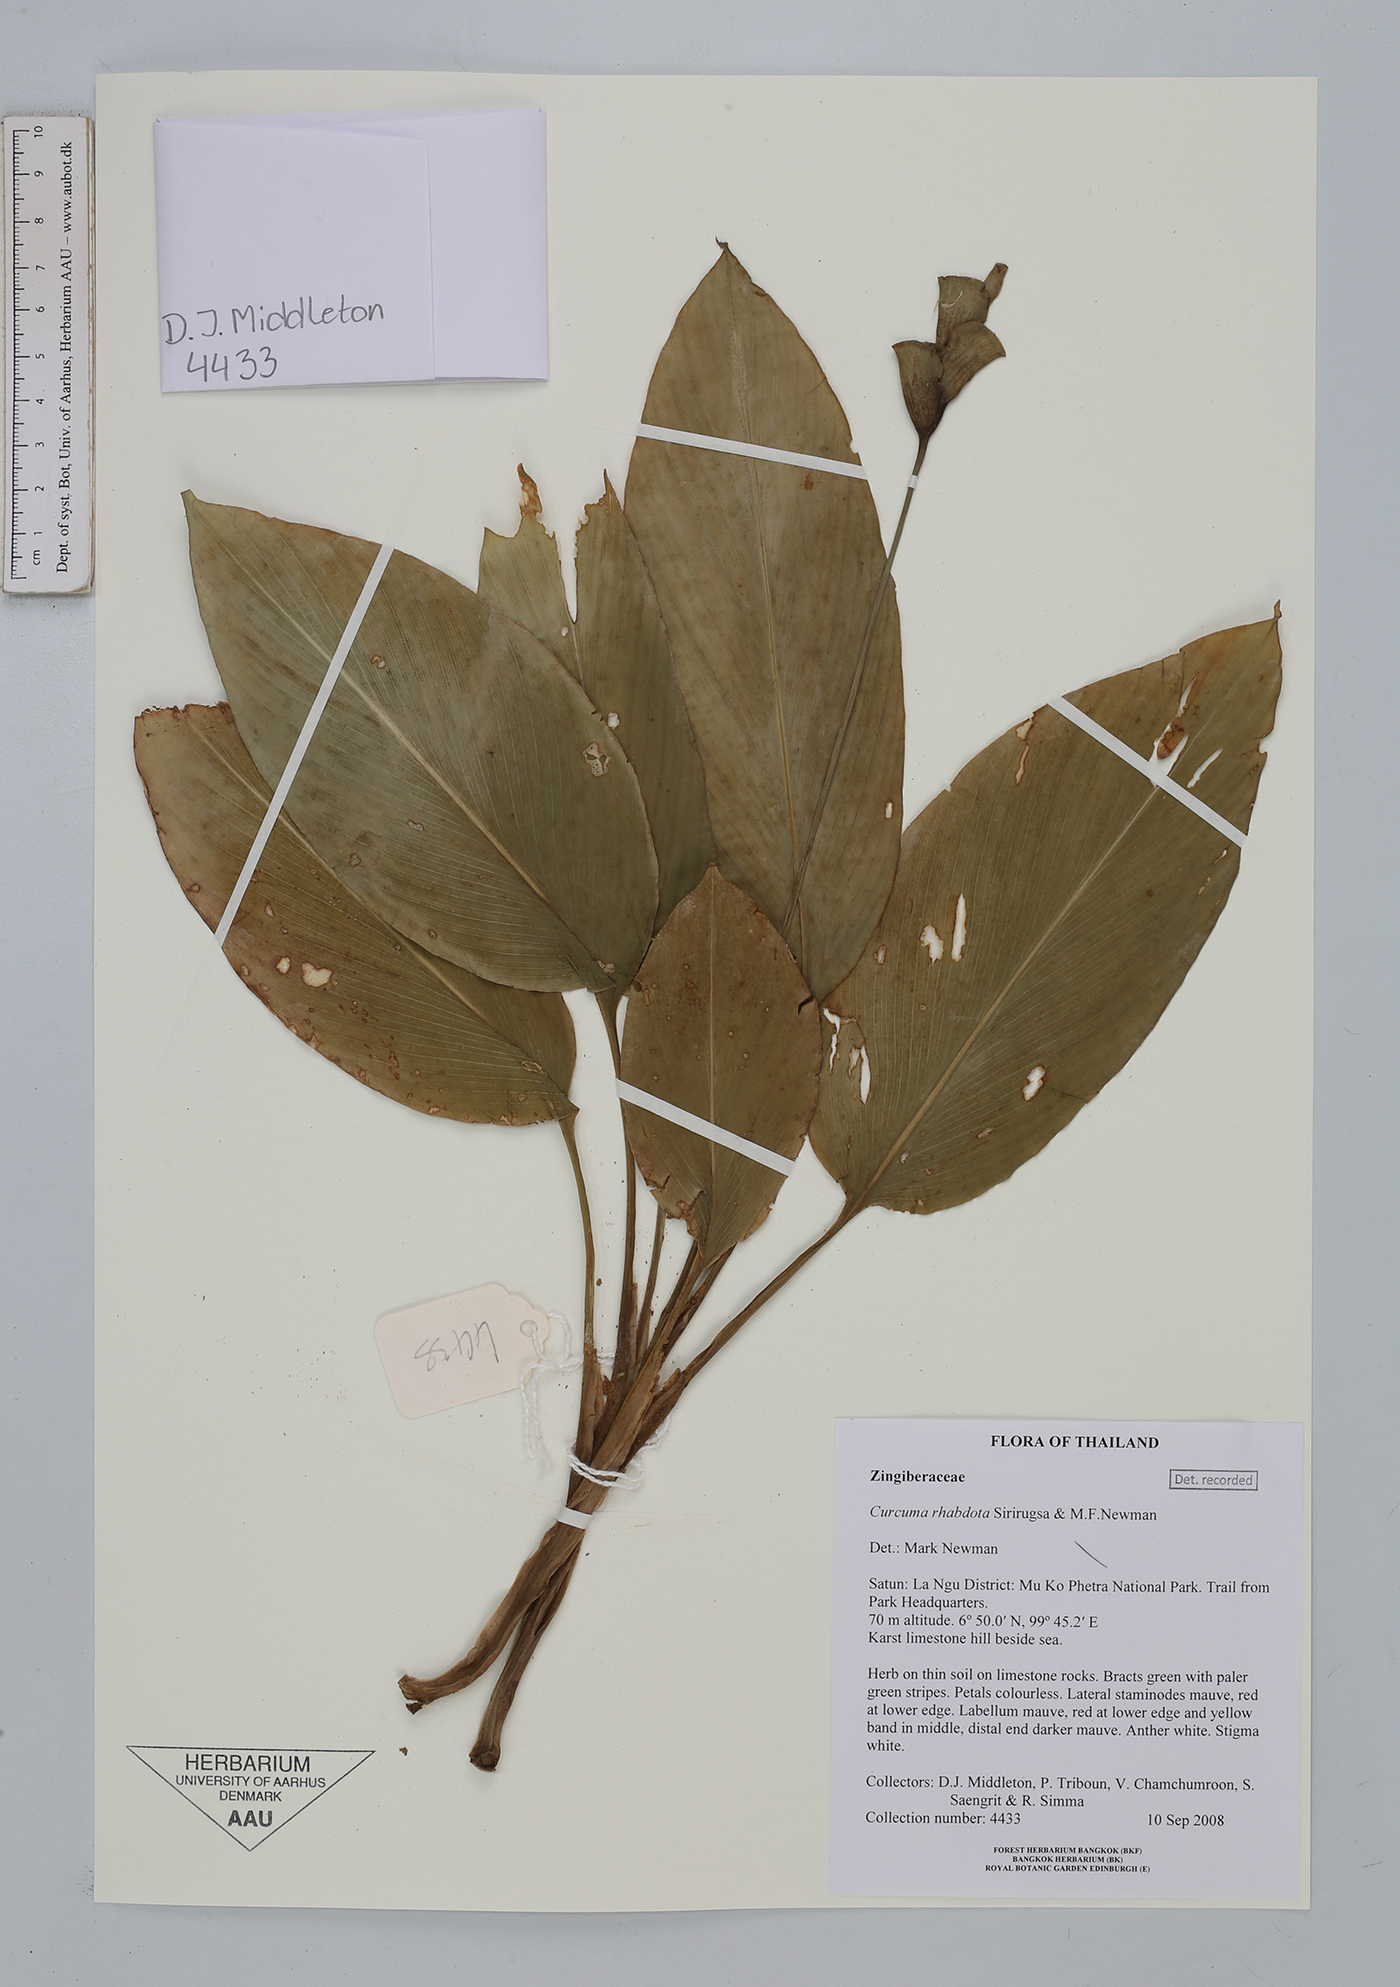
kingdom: Plantae
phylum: Tracheophyta
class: Liliopsida
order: Zingiberales
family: Zingiberaceae
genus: Curcuma
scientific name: Curcuma rhabdota
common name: Candy cane
